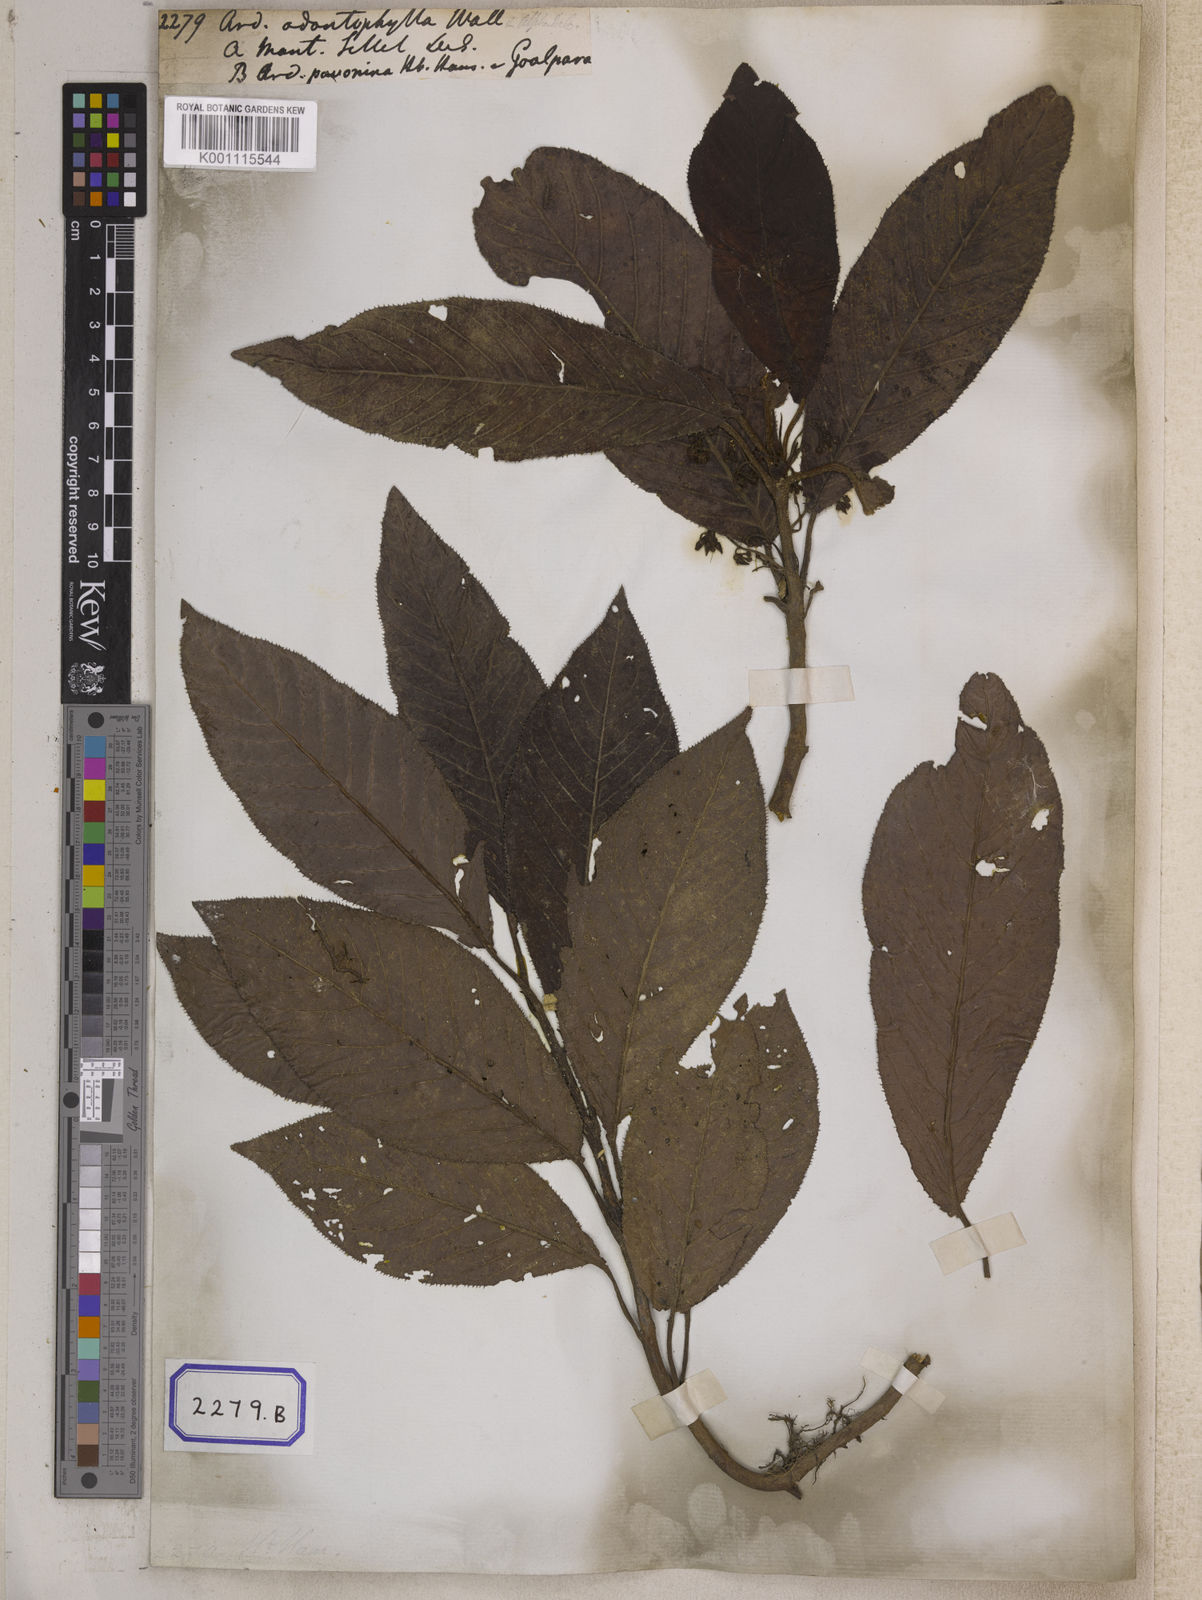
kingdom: Plantae
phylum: Tracheophyta
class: Magnoliopsida
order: Ericales
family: Primulaceae
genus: Ardisia
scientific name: Ardisia
